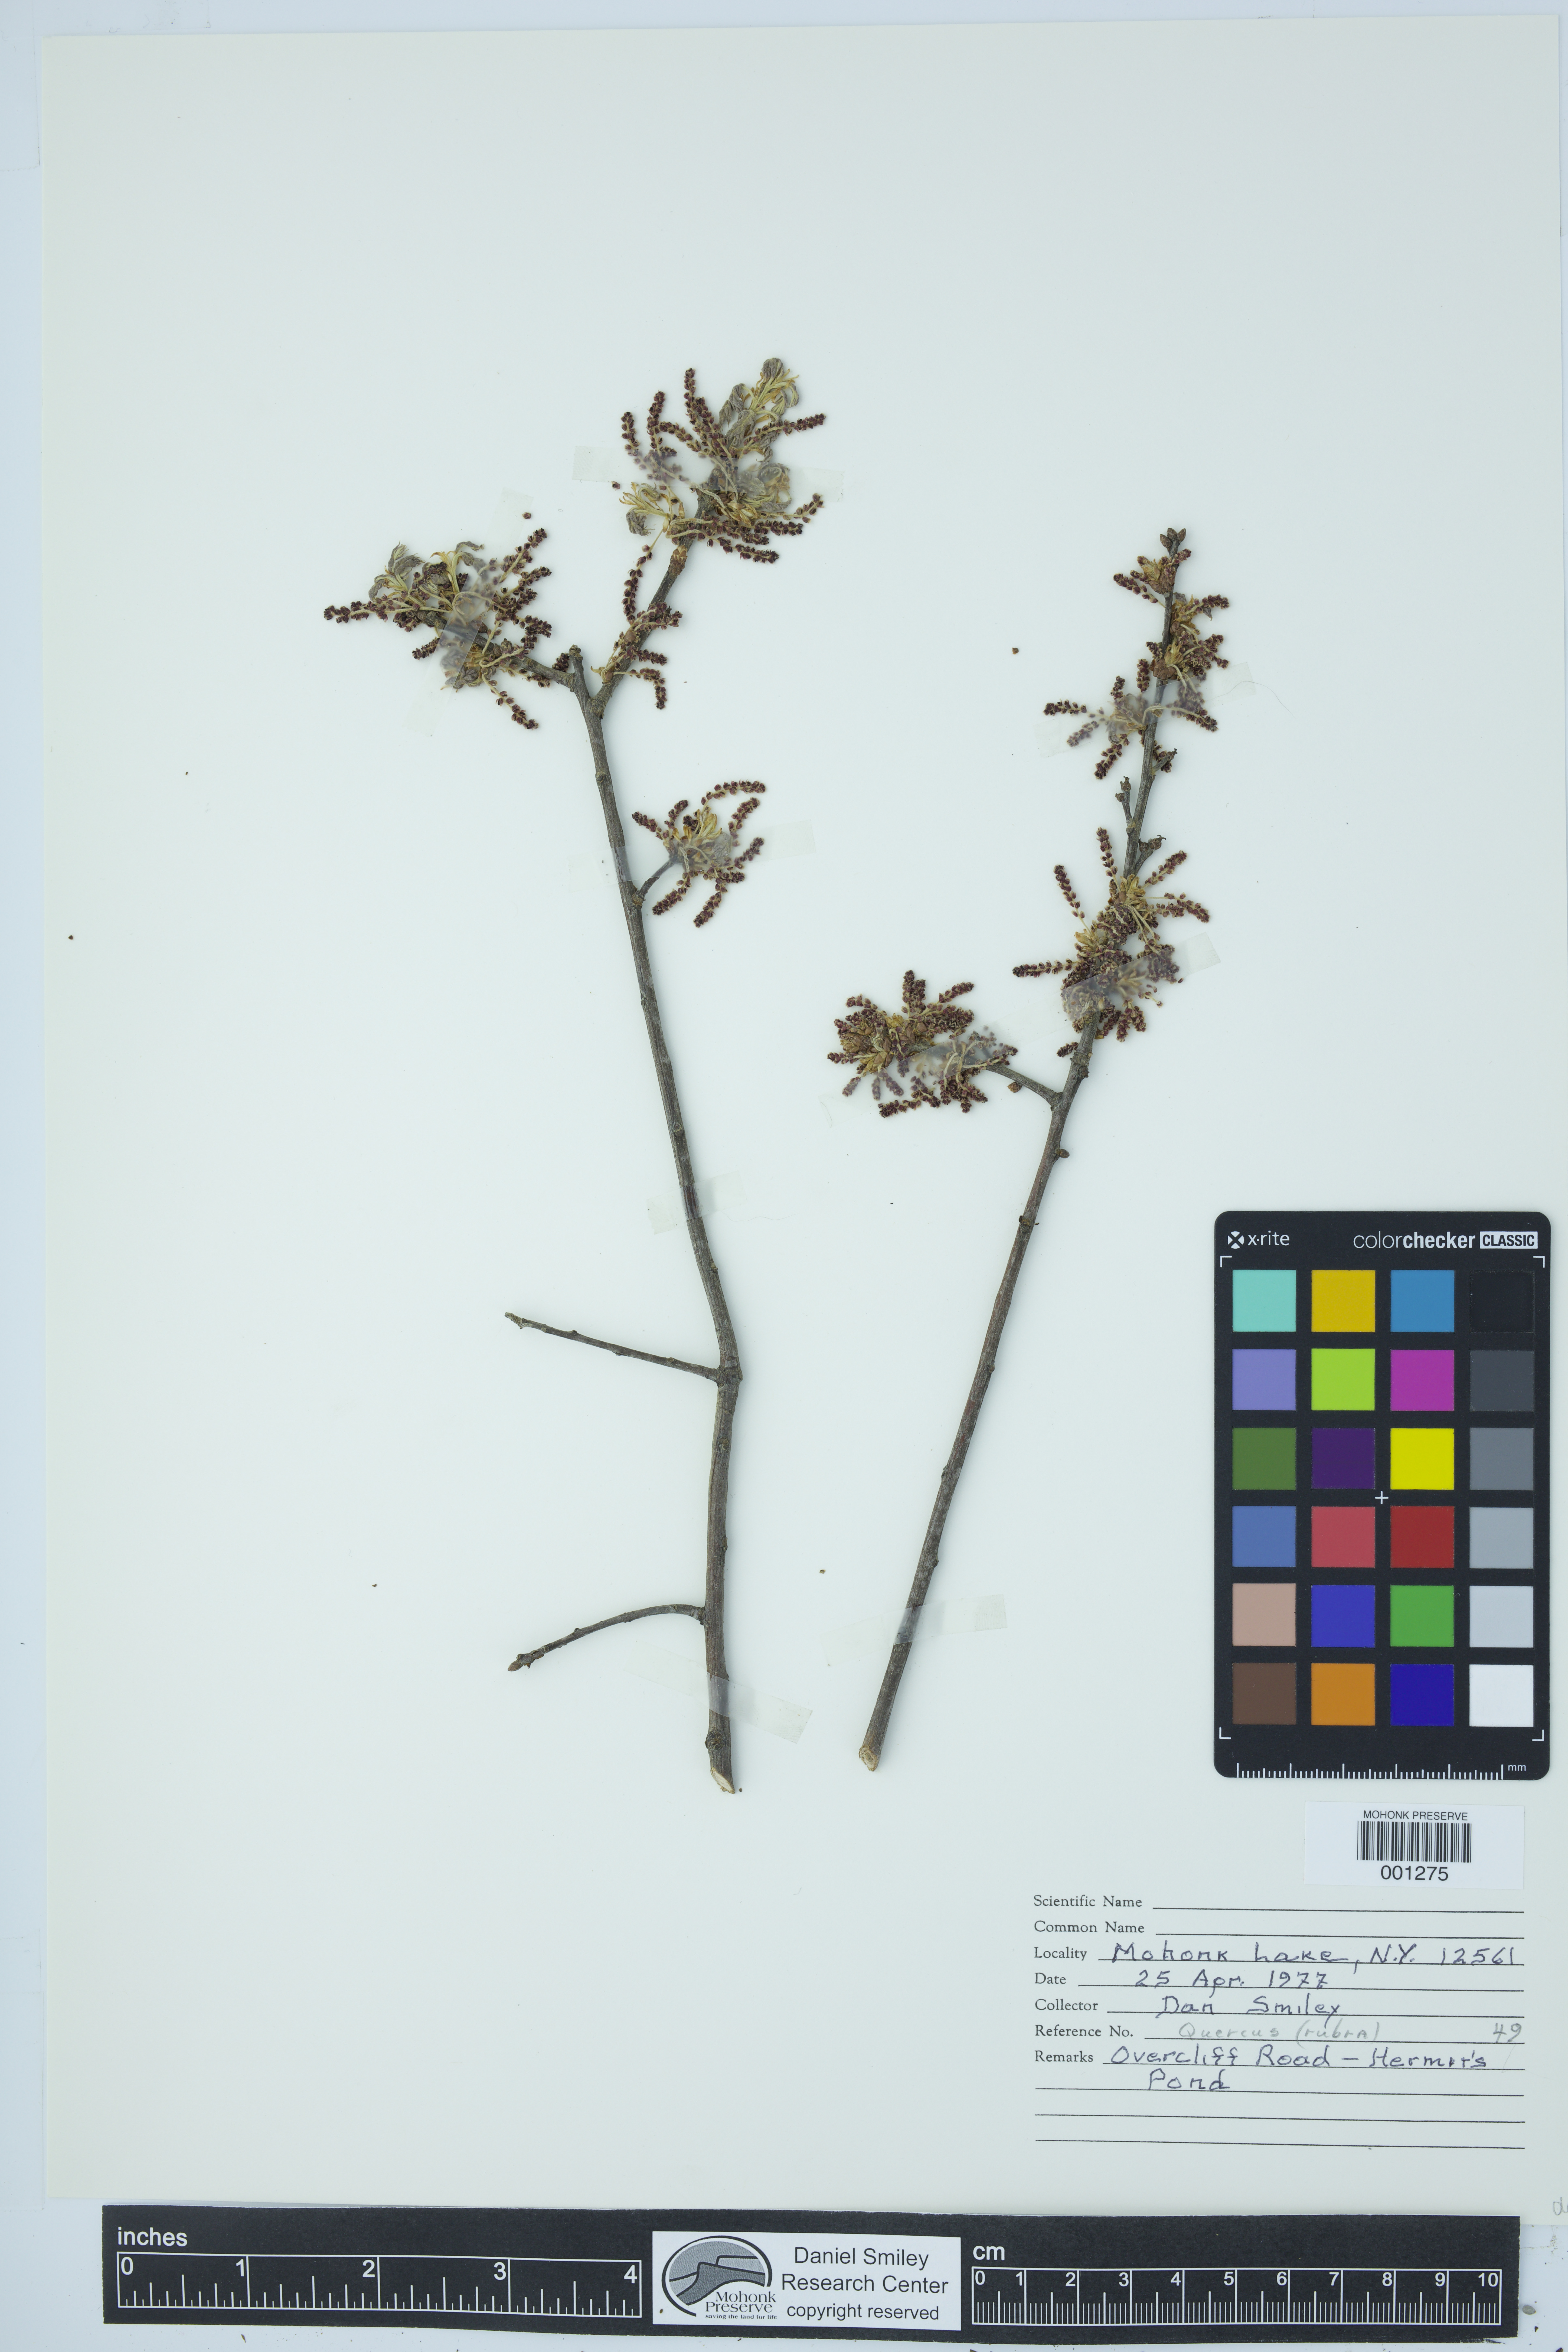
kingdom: Plantae
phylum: Tracheophyta
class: Magnoliopsida
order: Fagales
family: Fagaceae
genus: Quercus
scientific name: Quercus rubra
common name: Red oak
